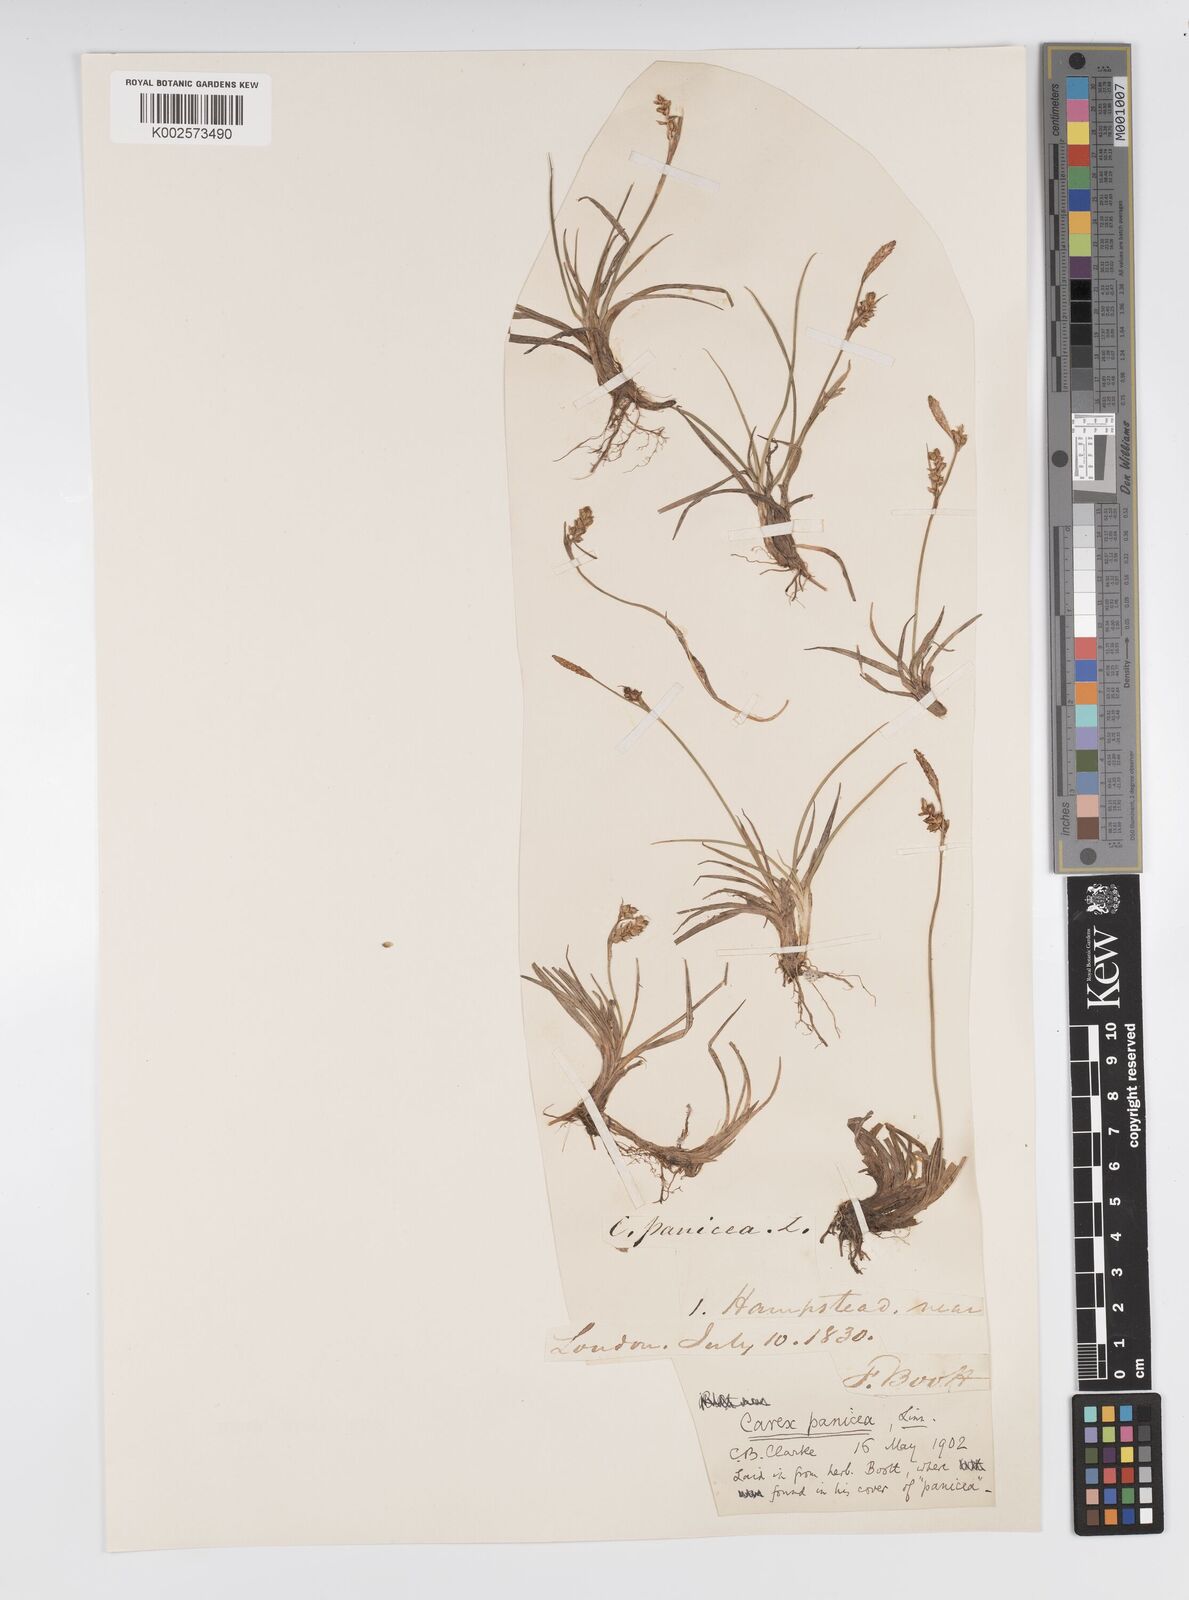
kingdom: Plantae
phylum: Tracheophyta
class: Liliopsida
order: Poales
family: Cyperaceae
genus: Carex
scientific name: Carex panicea
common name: Carnation sedge
